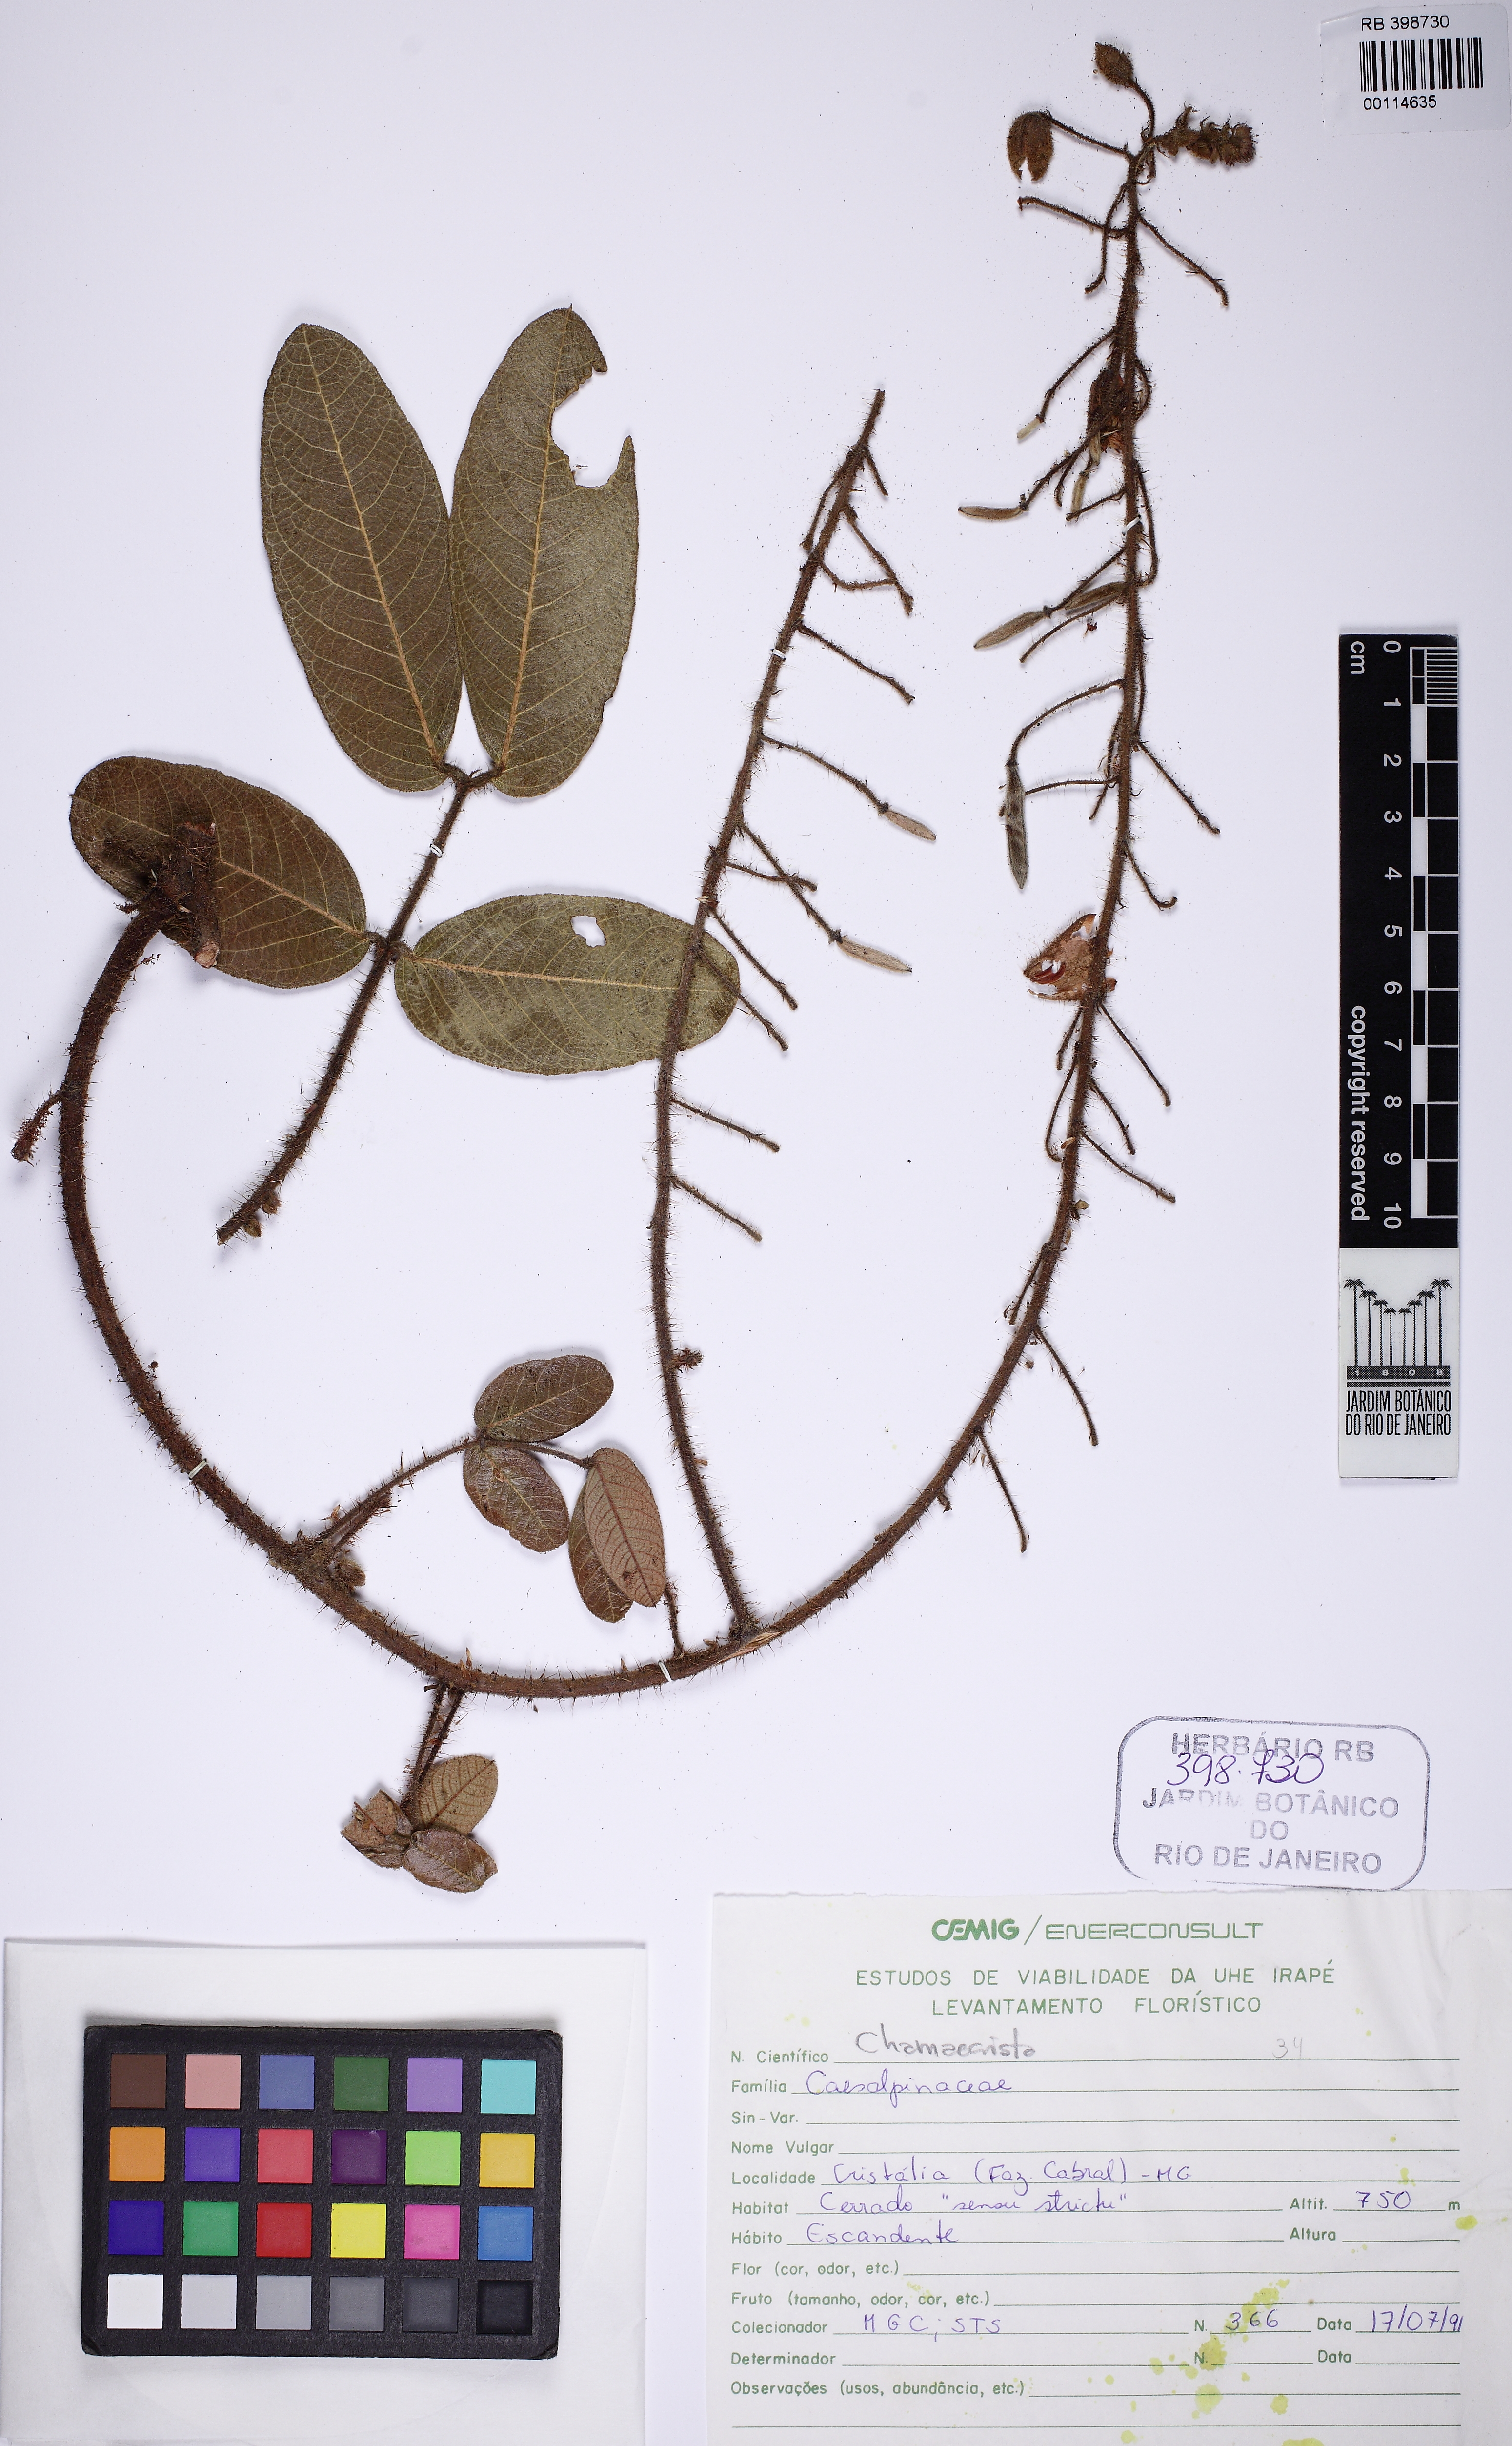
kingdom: Plantae
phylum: Tracheophyta
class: Magnoliopsida
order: Fabales
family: Fabaceae
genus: Chamaecrista
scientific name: Chamaecrista setosa
